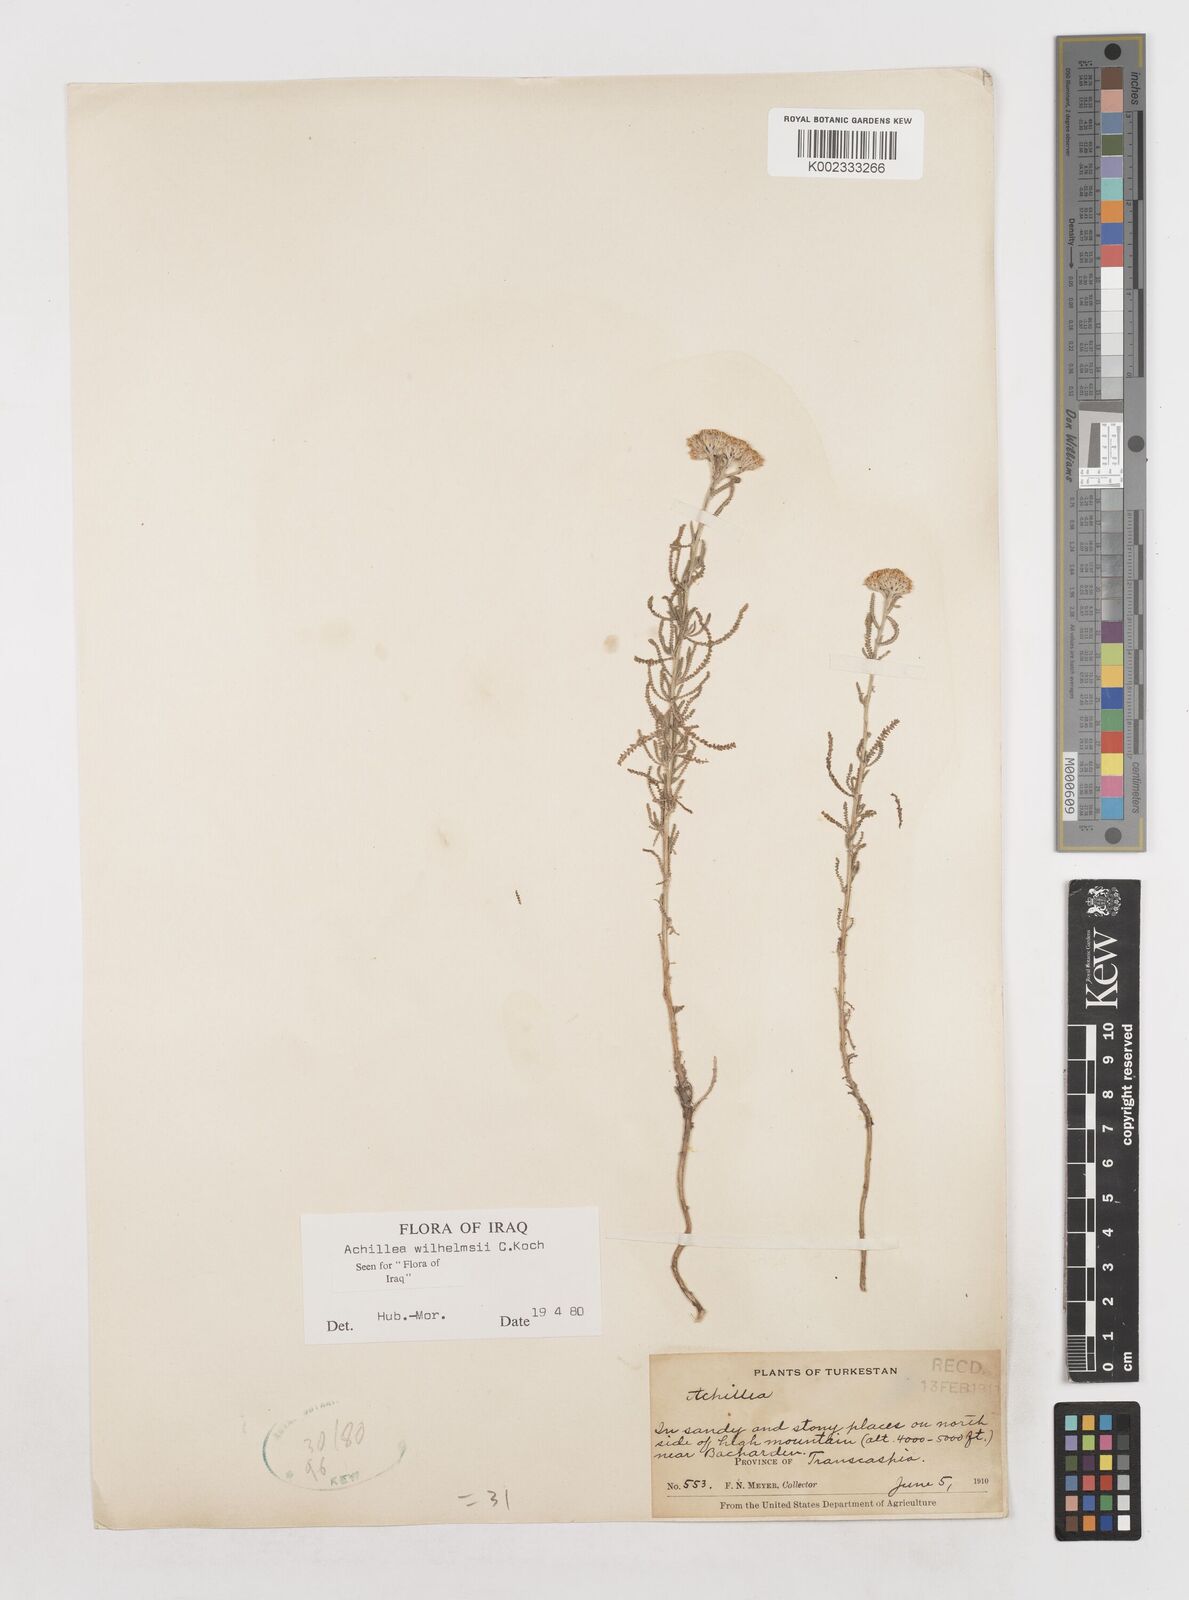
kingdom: Plantae
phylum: Tracheophyta
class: Magnoliopsida
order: Asterales
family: Asteraceae
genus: Achillea
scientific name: Achillea tenuifolia
